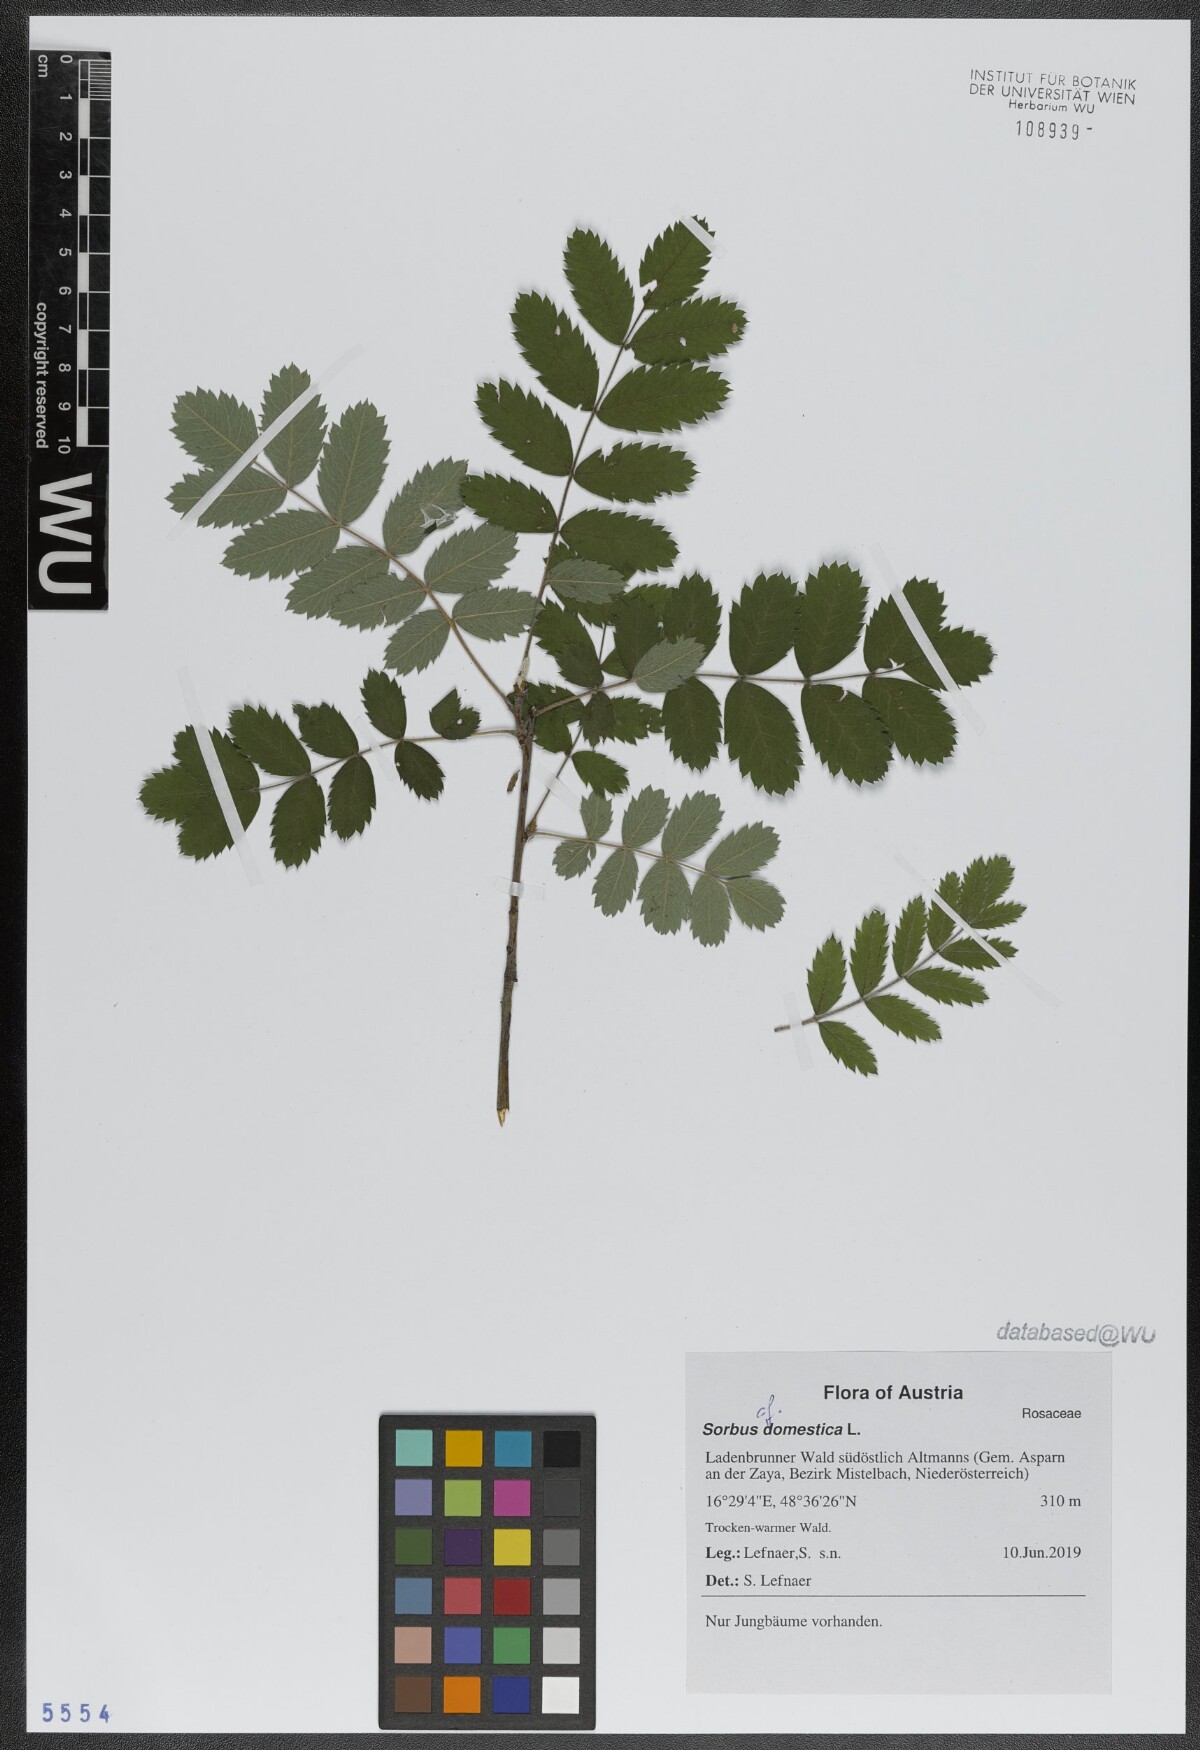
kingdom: Plantae
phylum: Tracheophyta
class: Magnoliopsida
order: Rosales
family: Rosaceae
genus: Cormus
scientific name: Cormus domestica
